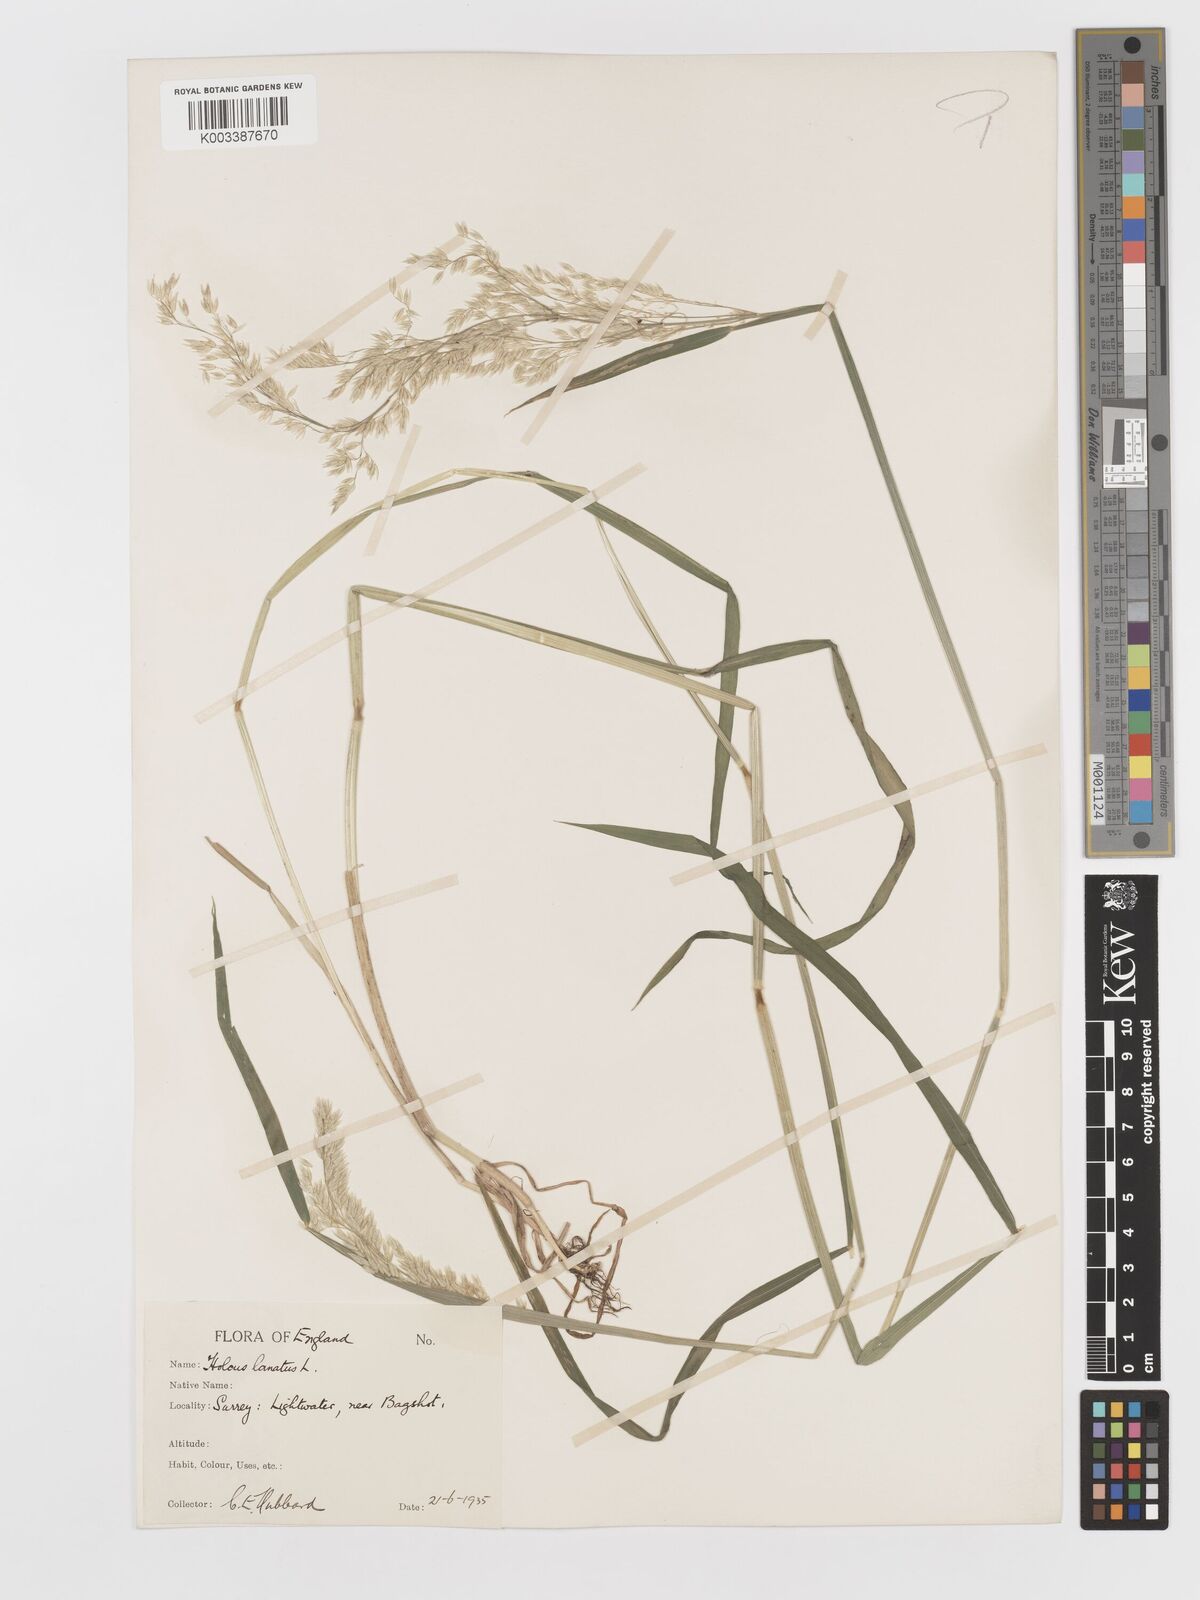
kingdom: Plantae
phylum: Tracheophyta
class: Liliopsida
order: Poales
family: Poaceae
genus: Holcus
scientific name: Holcus lanatus
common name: Yorkshire-fog
